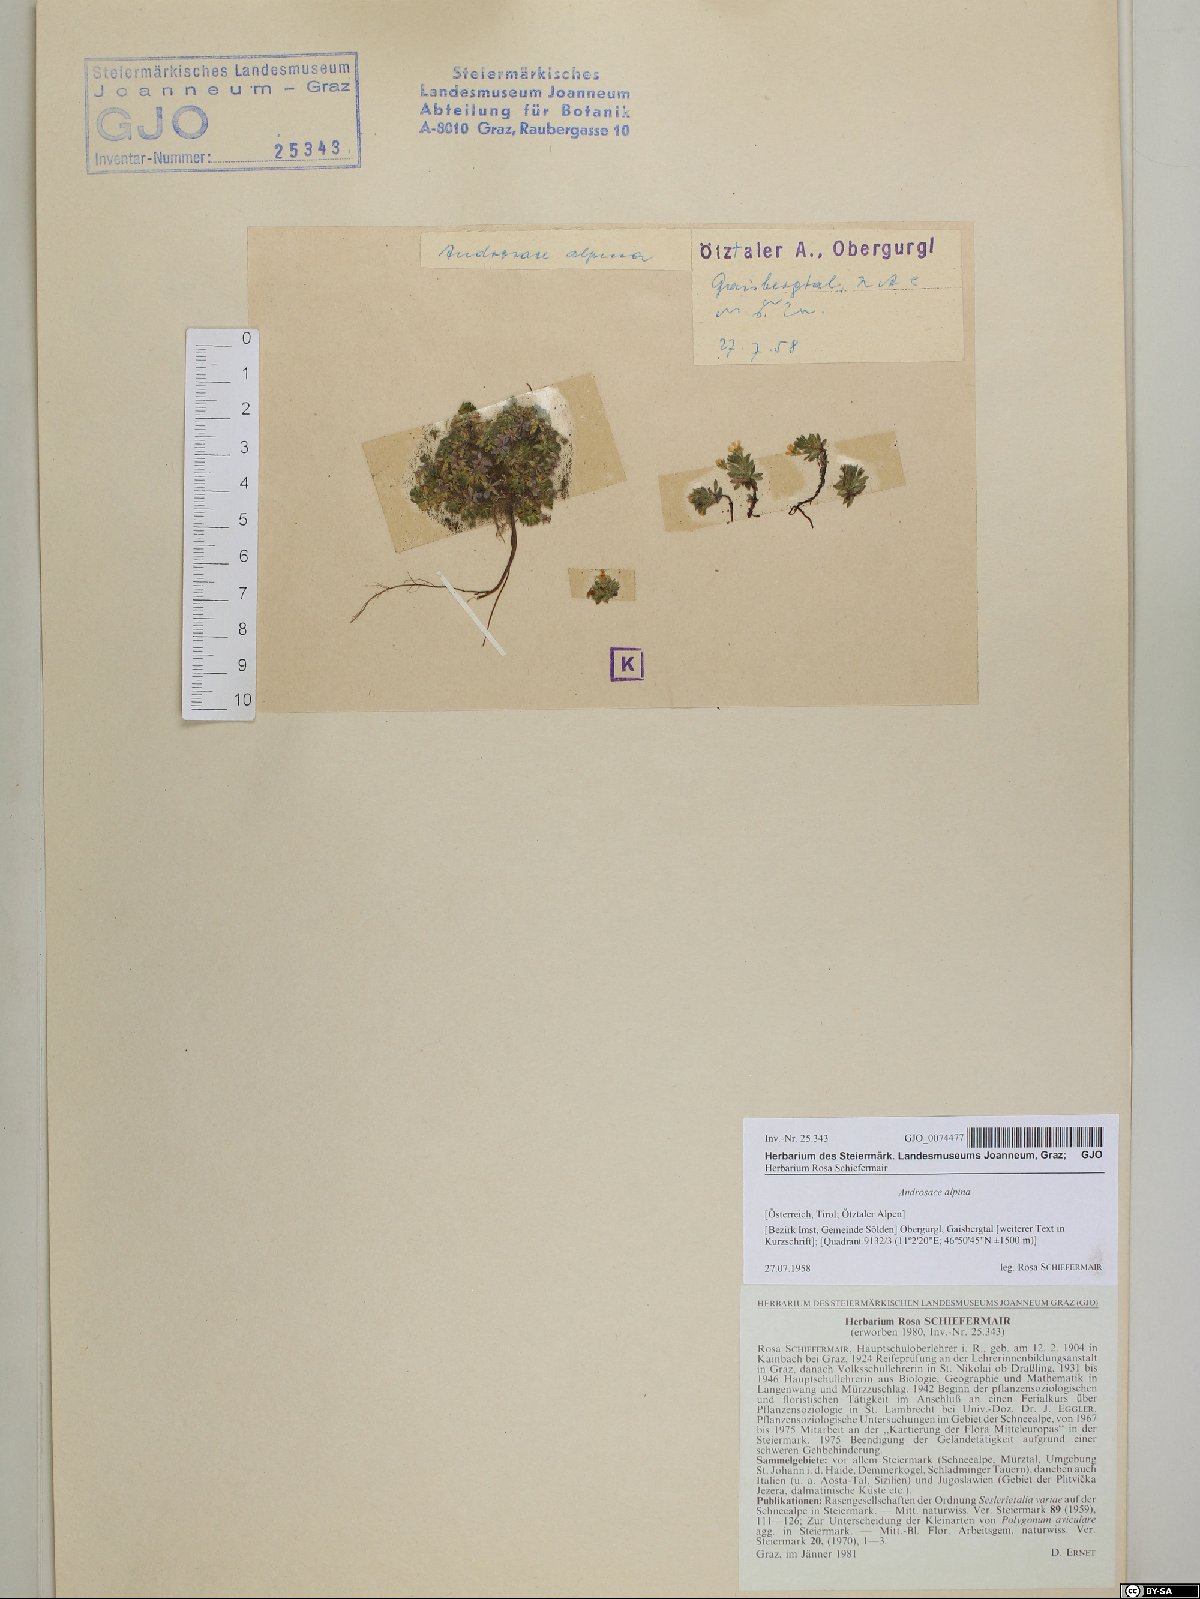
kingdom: Plantae
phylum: Tracheophyta
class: Magnoliopsida
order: Ericales
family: Primulaceae
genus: Androsace
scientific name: Androsace alpina
